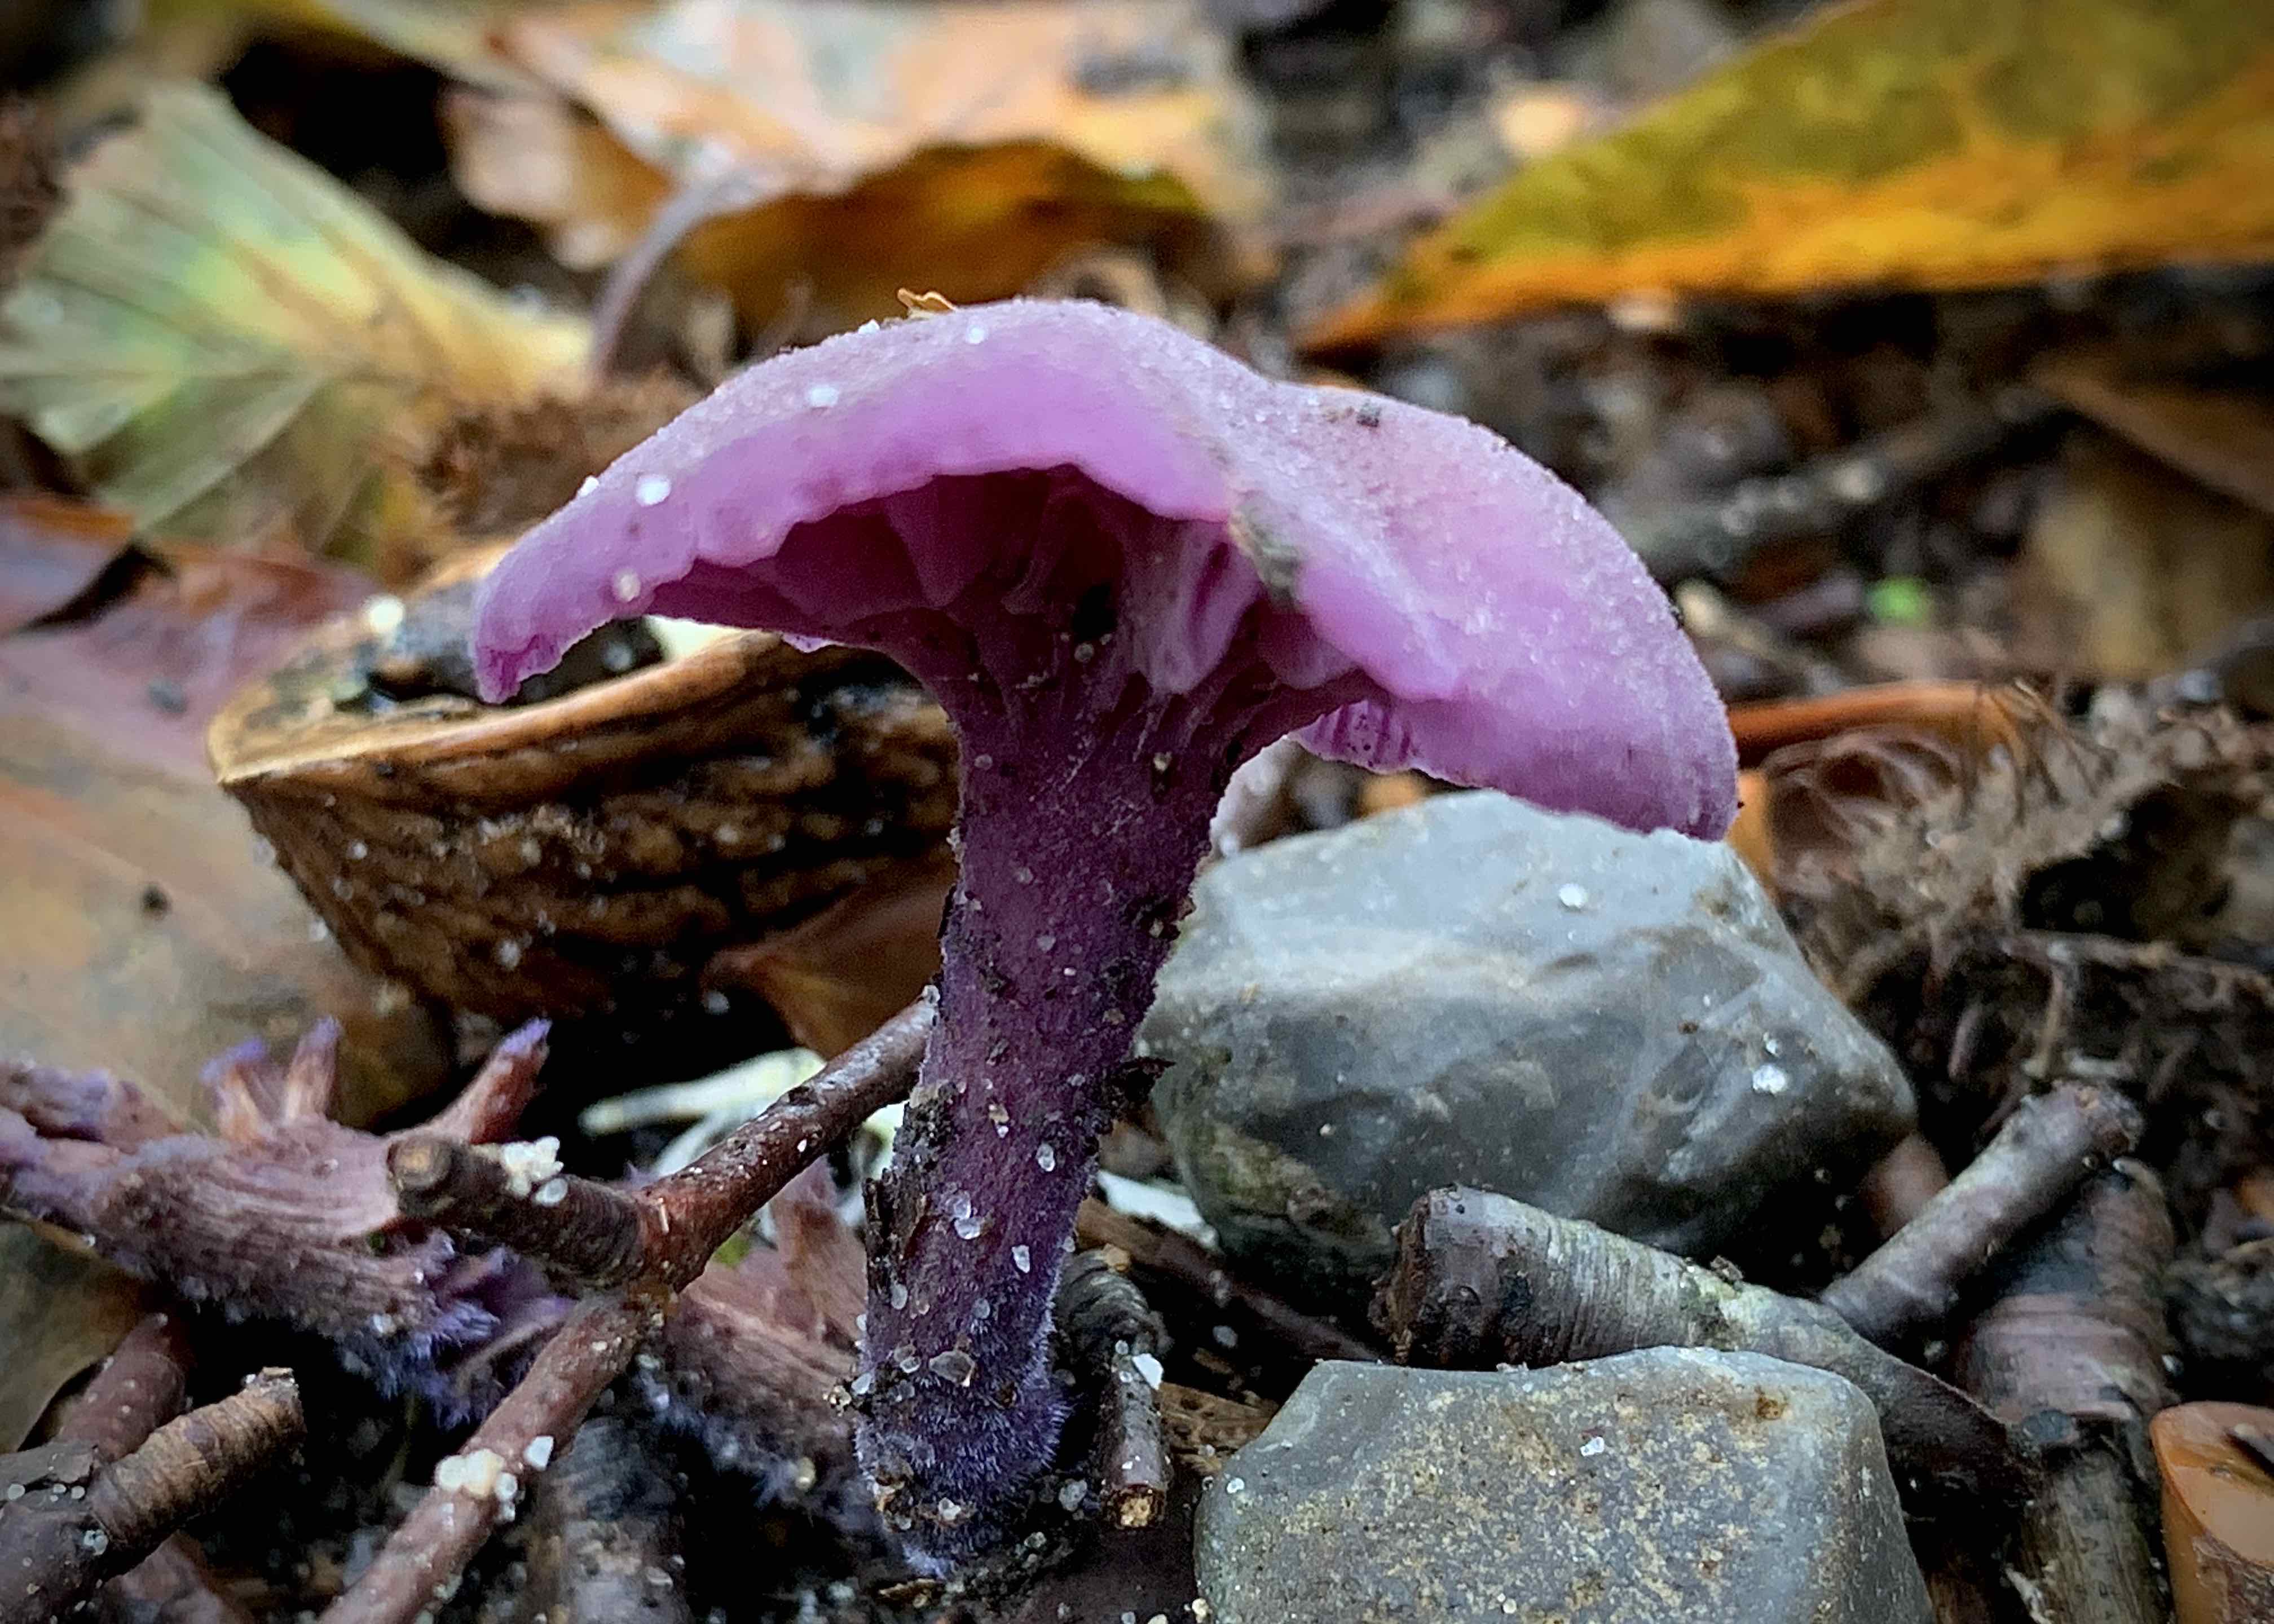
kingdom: Fungi
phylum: Basidiomycota
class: Agaricomycetes
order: Agaricales
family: Hydnangiaceae
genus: Laccaria
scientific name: Laccaria amethystina
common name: violet ametysthat
